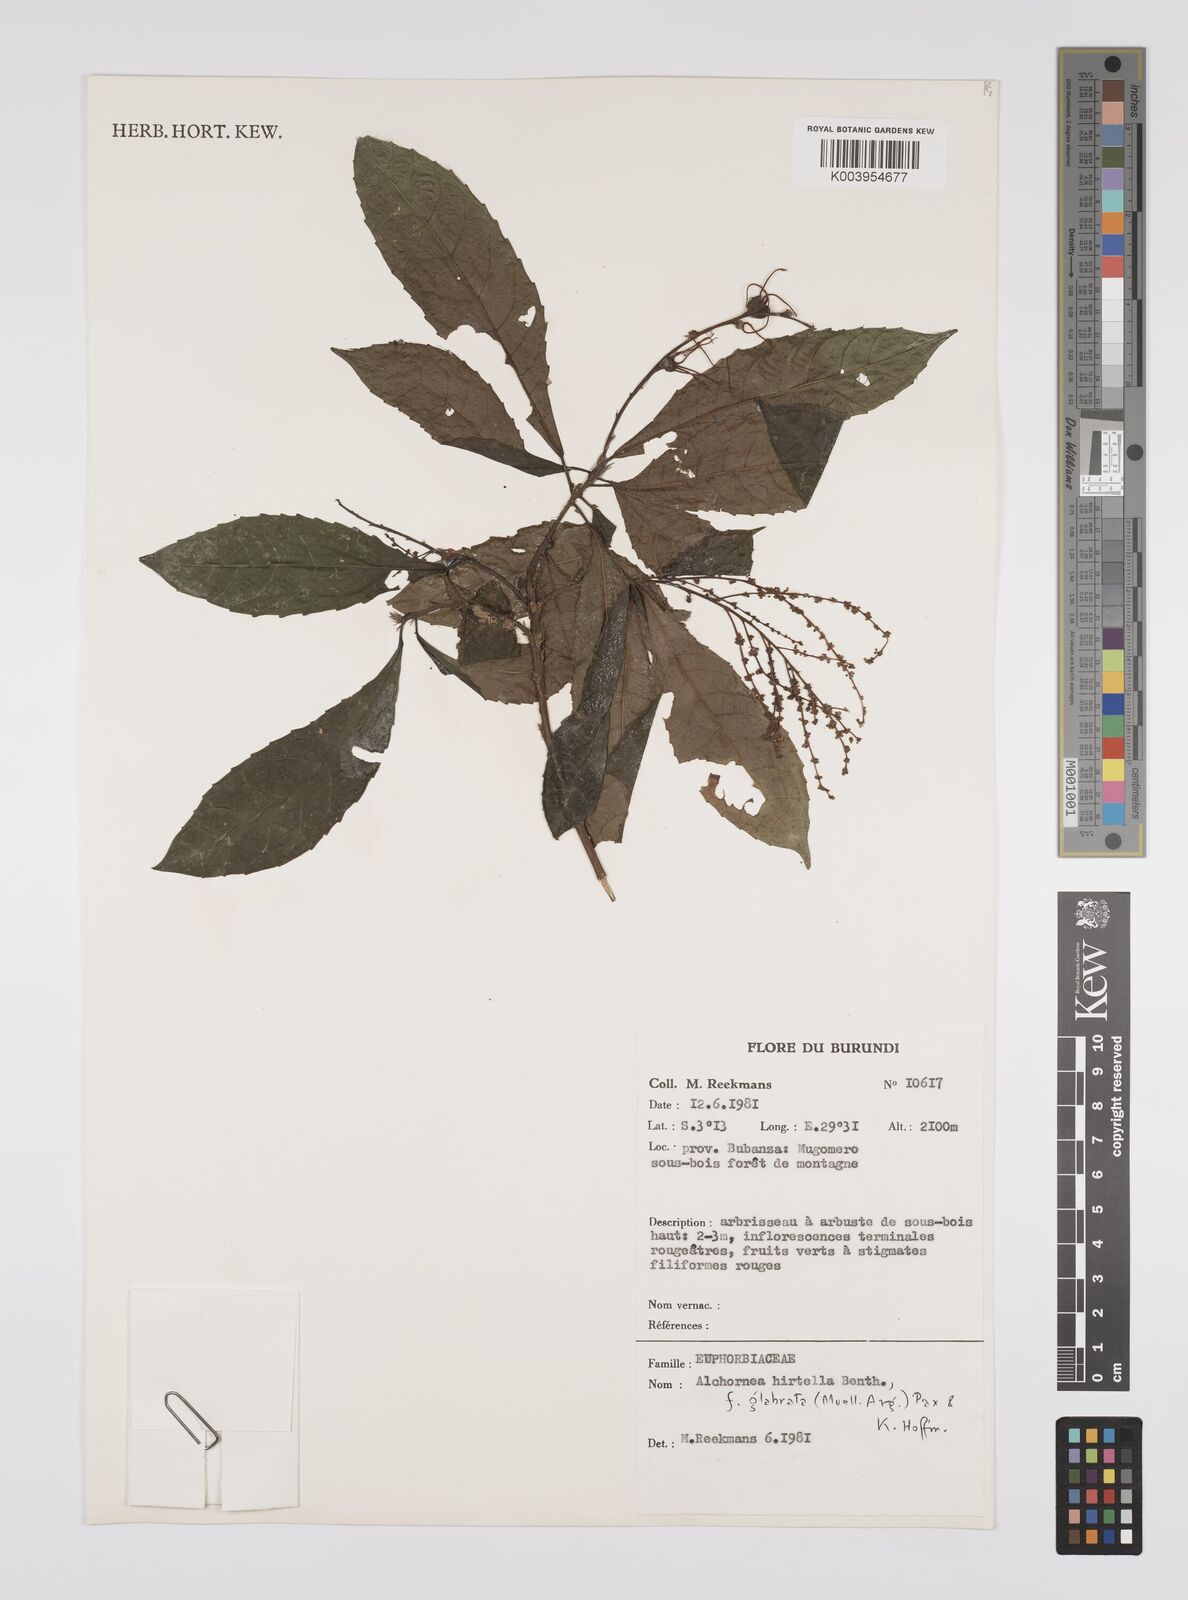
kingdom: Plantae
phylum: Tracheophyta
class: Magnoliopsida
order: Malpighiales
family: Euphorbiaceae
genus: Alchornea
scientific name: Alchornea hirtella
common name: Forest bead-string
